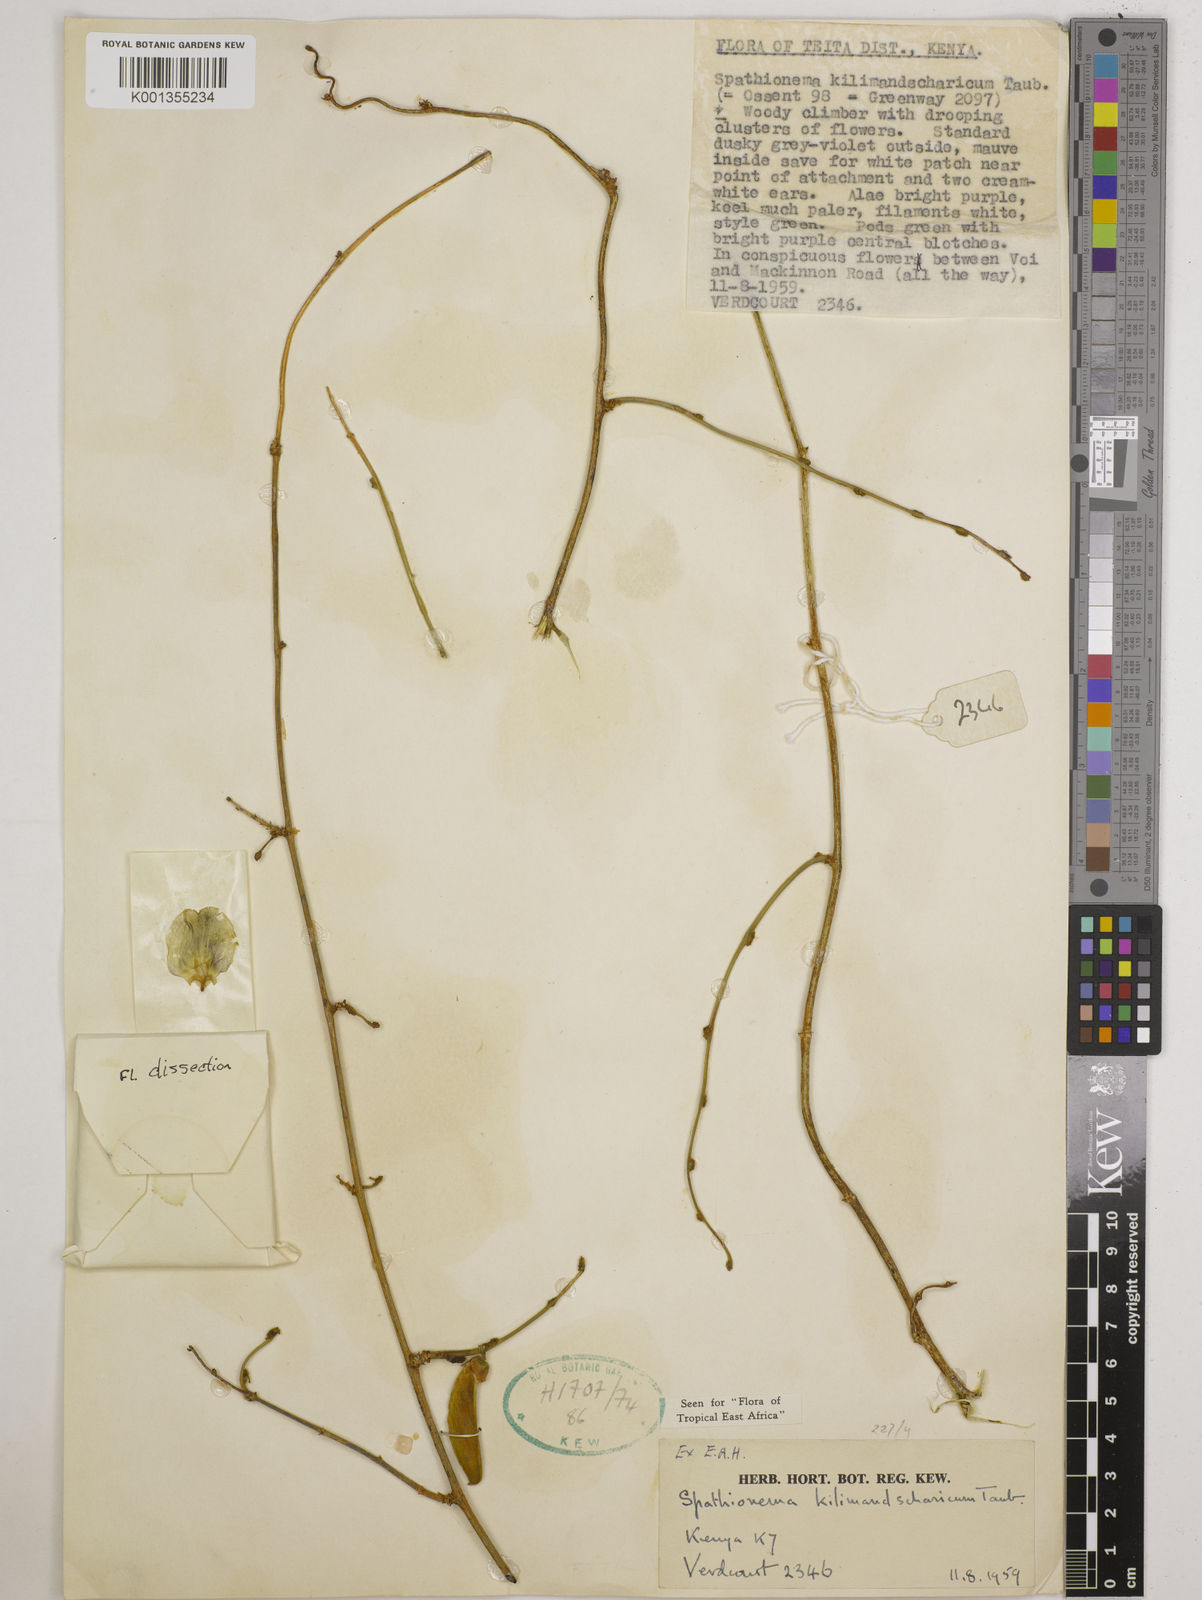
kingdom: Plantae
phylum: Tracheophyta
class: Magnoliopsida
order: Fabales
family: Fabaceae
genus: Spathionema
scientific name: Spathionema kilimandscharicum
